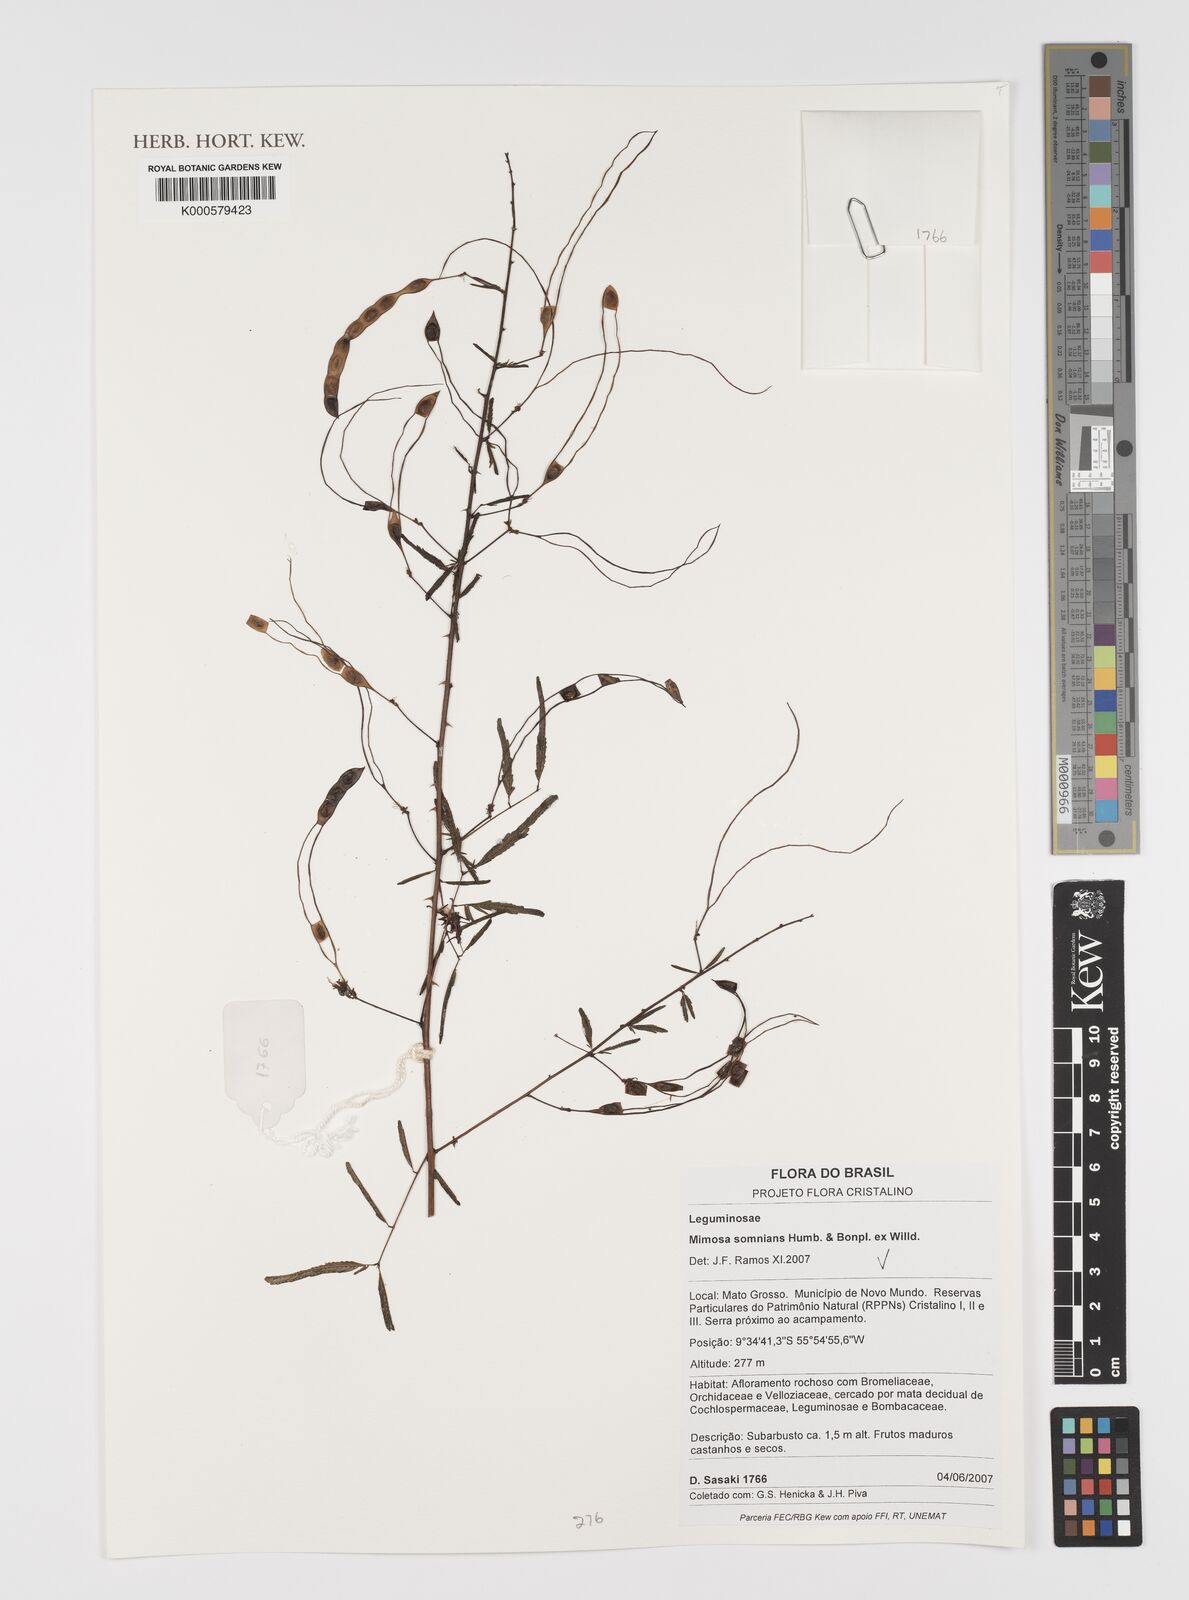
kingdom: Plantae
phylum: Tracheophyta
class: Magnoliopsida
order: Fabales
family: Fabaceae
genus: Mimosa
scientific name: Mimosa somnians
